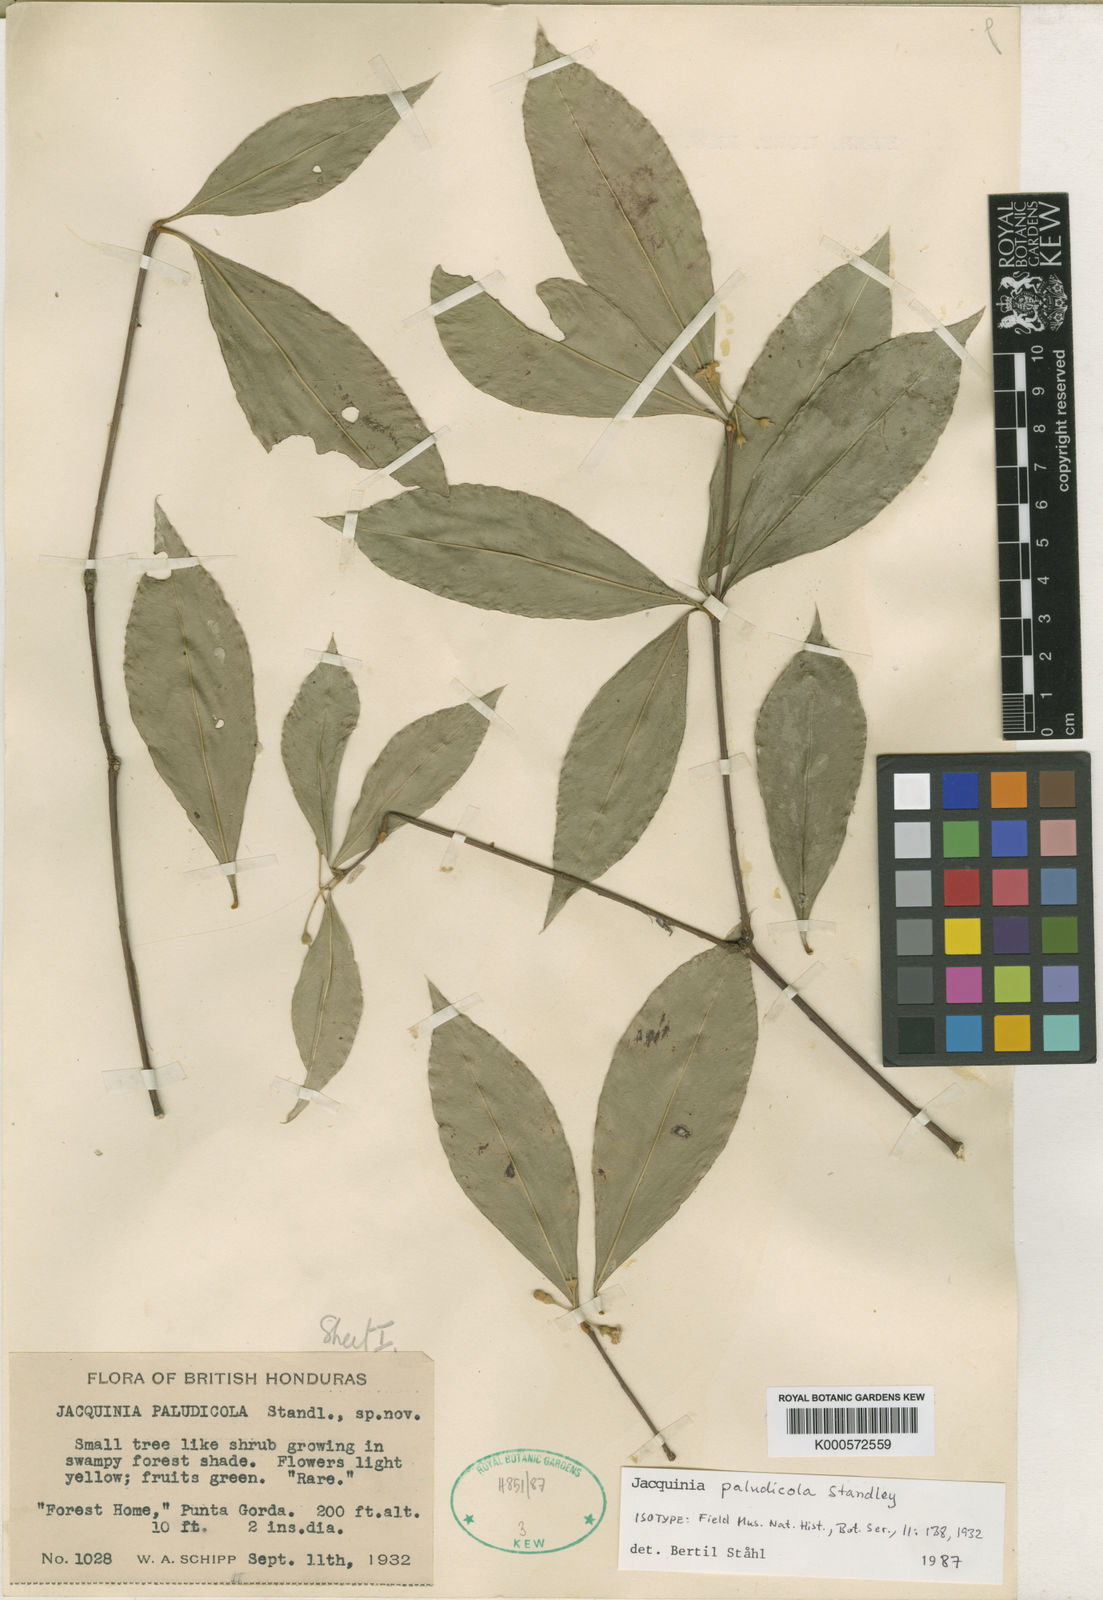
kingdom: Plantae
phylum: Tracheophyta
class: Magnoliopsida
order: Ericales
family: Primulaceae
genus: Bonellia
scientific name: Bonellia paludicola
